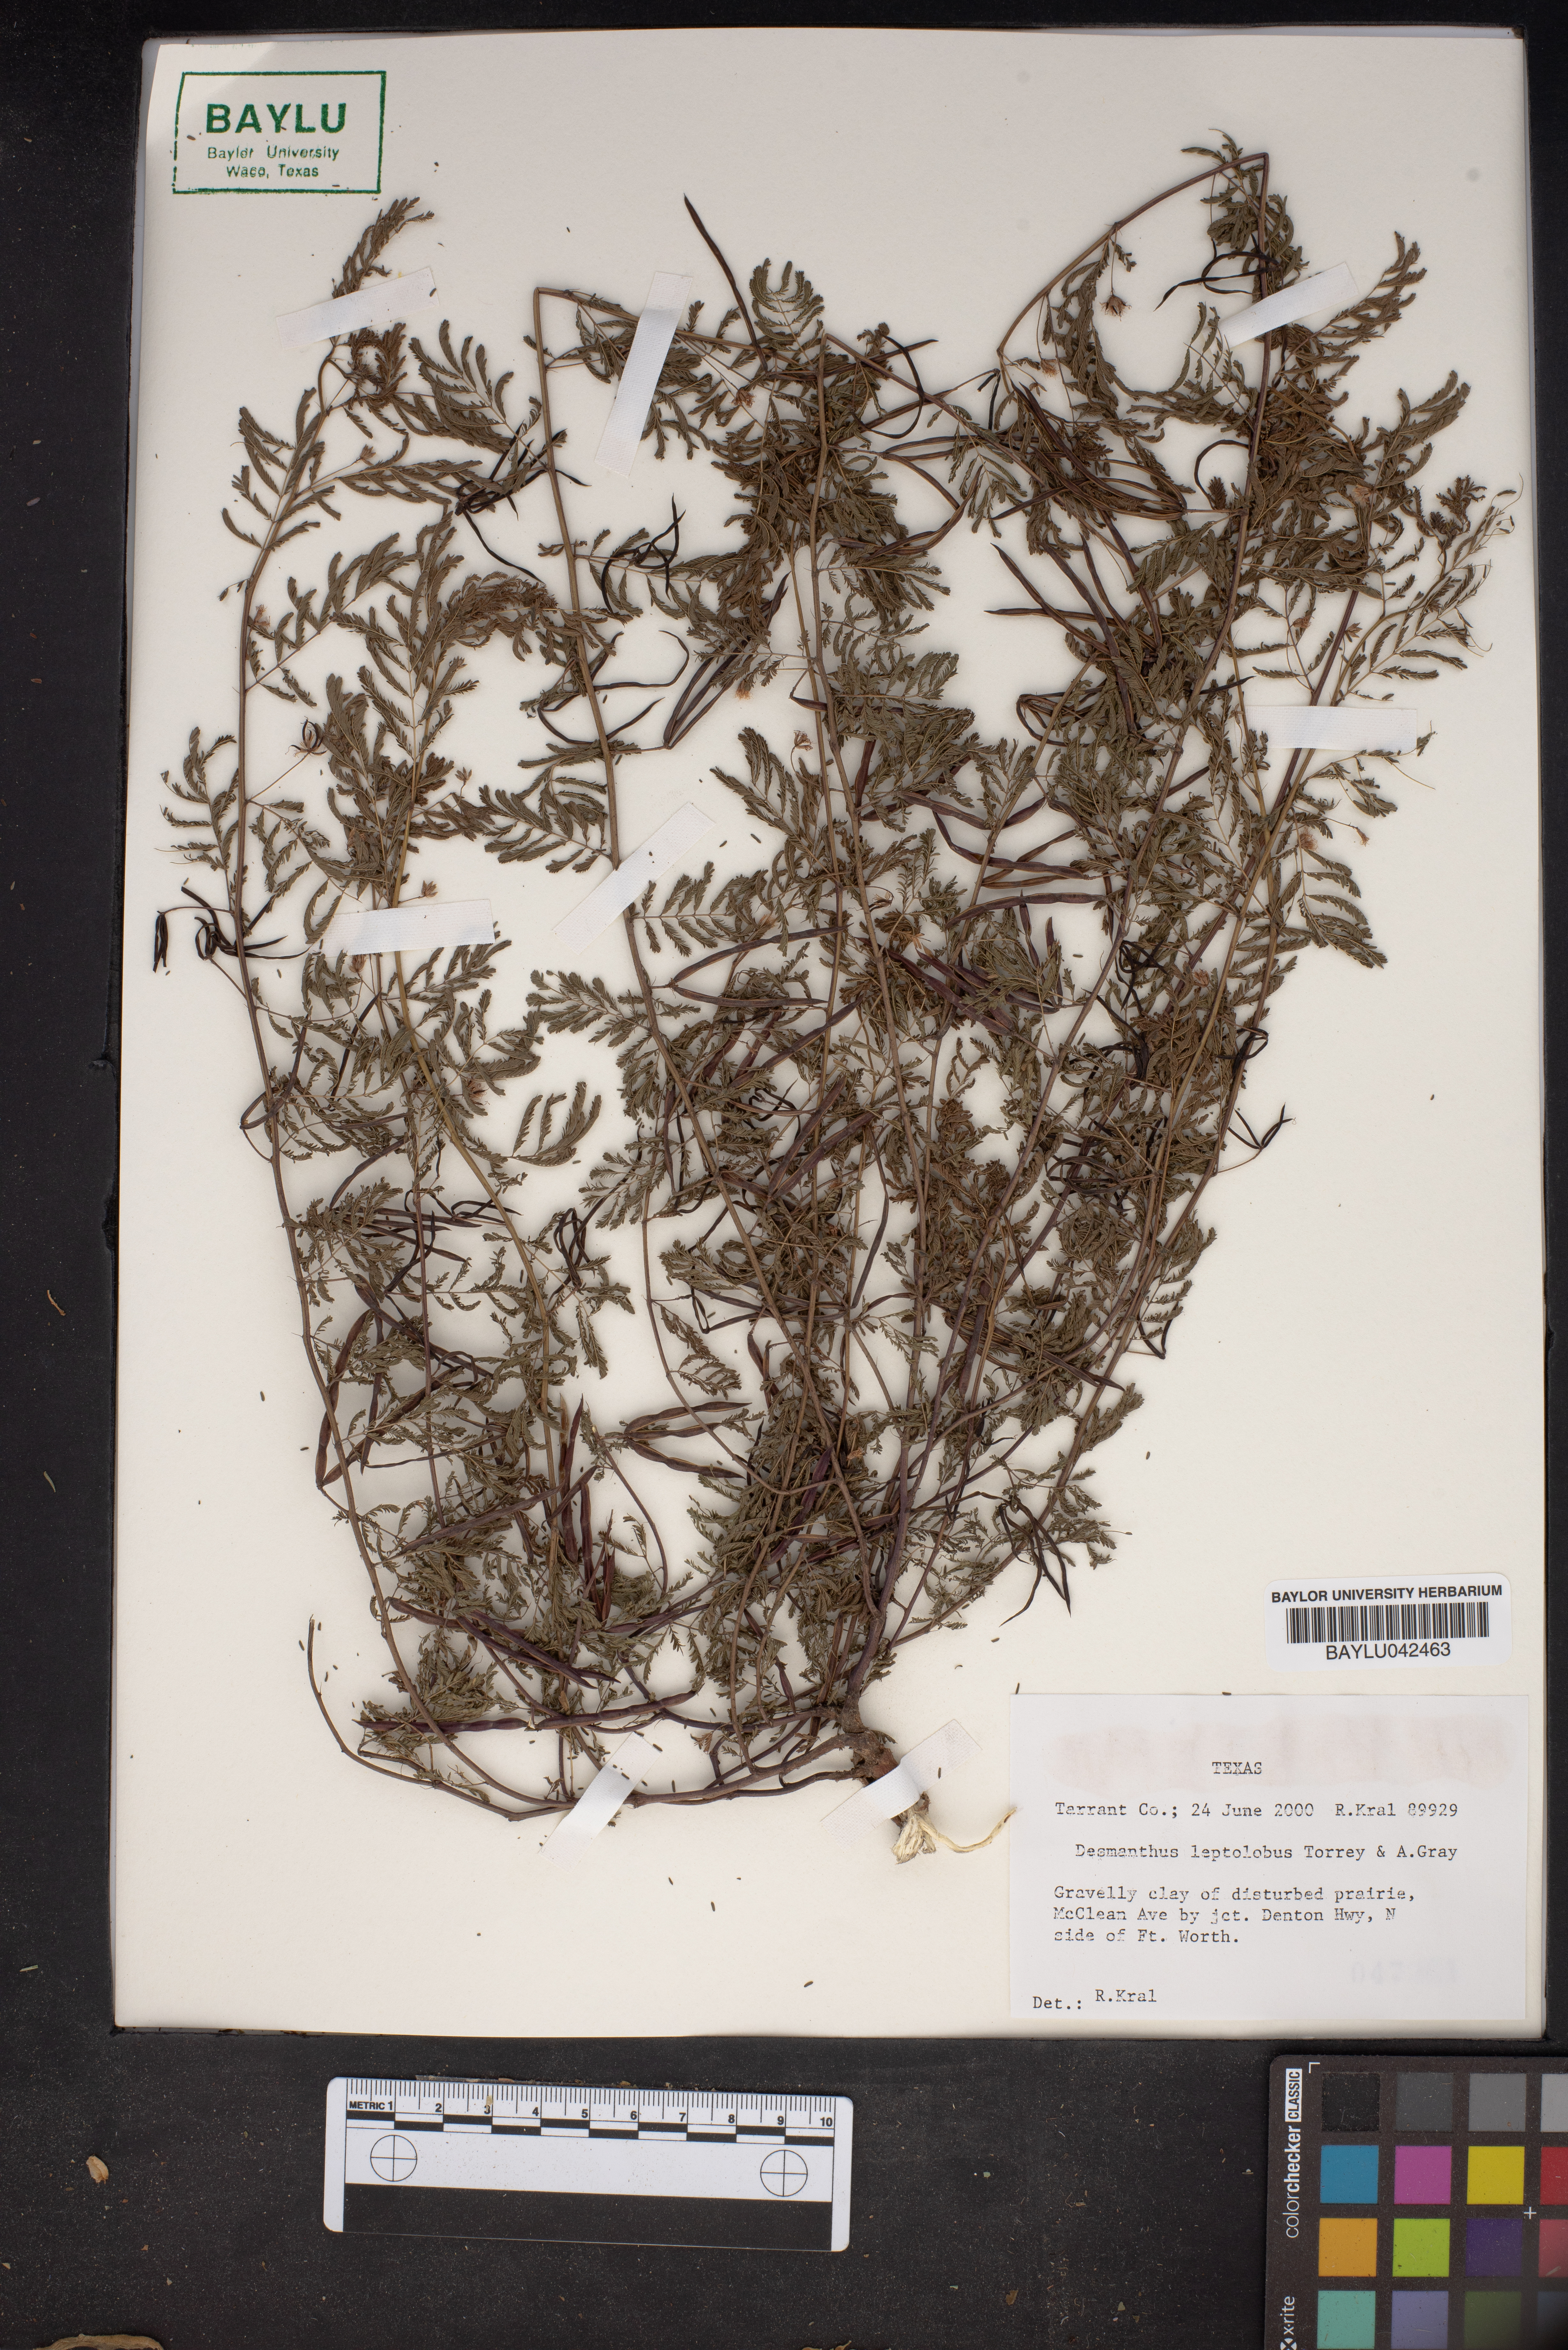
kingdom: Plantae
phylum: Tracheophyta
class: Magnoliopsida
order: Fabales
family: Fabaceae
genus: Desmanthus
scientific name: Desmanthus leptolobus
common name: Prairie-mimosa
